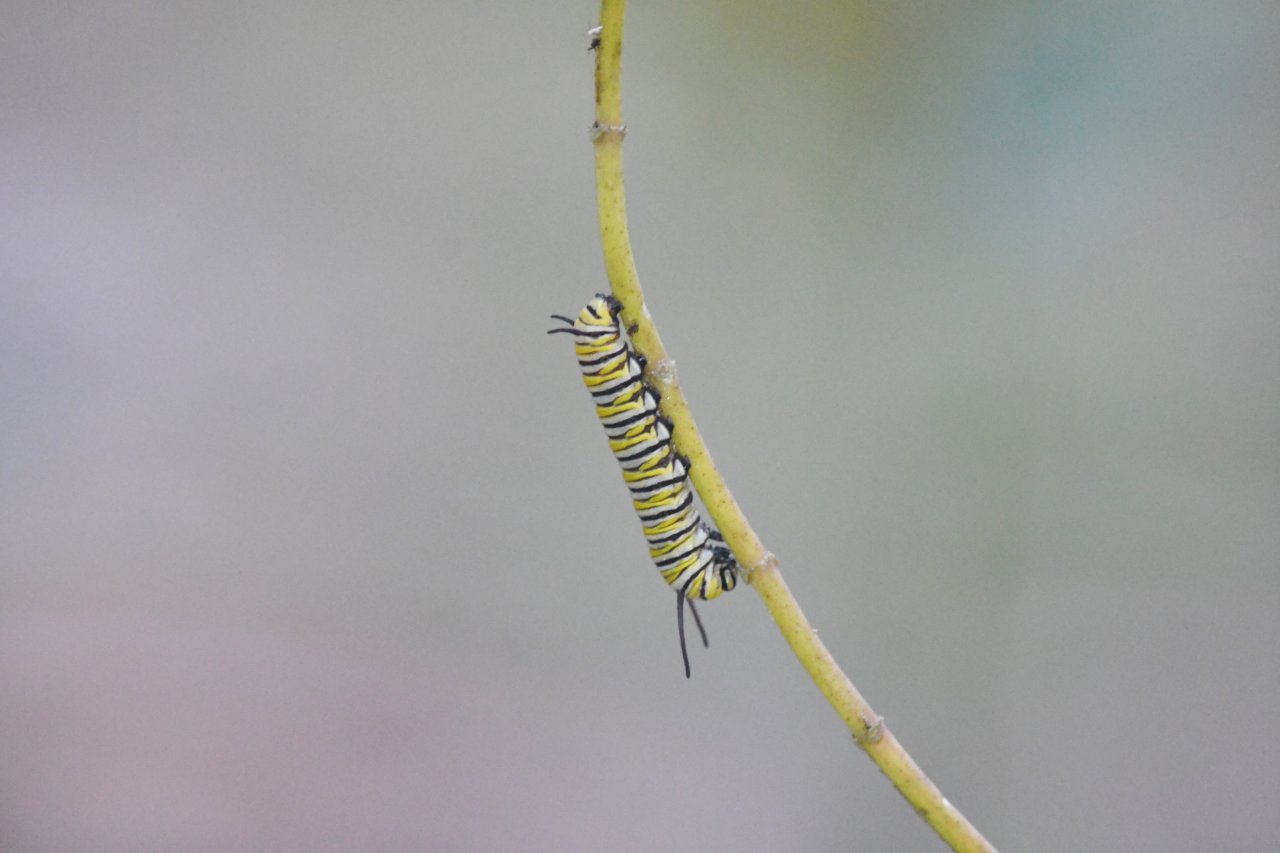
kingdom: Animalia
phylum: Arthropoda
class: Insecta
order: Lepidoptera
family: Nymphalidae
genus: Danaus
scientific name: Danaus plexippus
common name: Monarch
